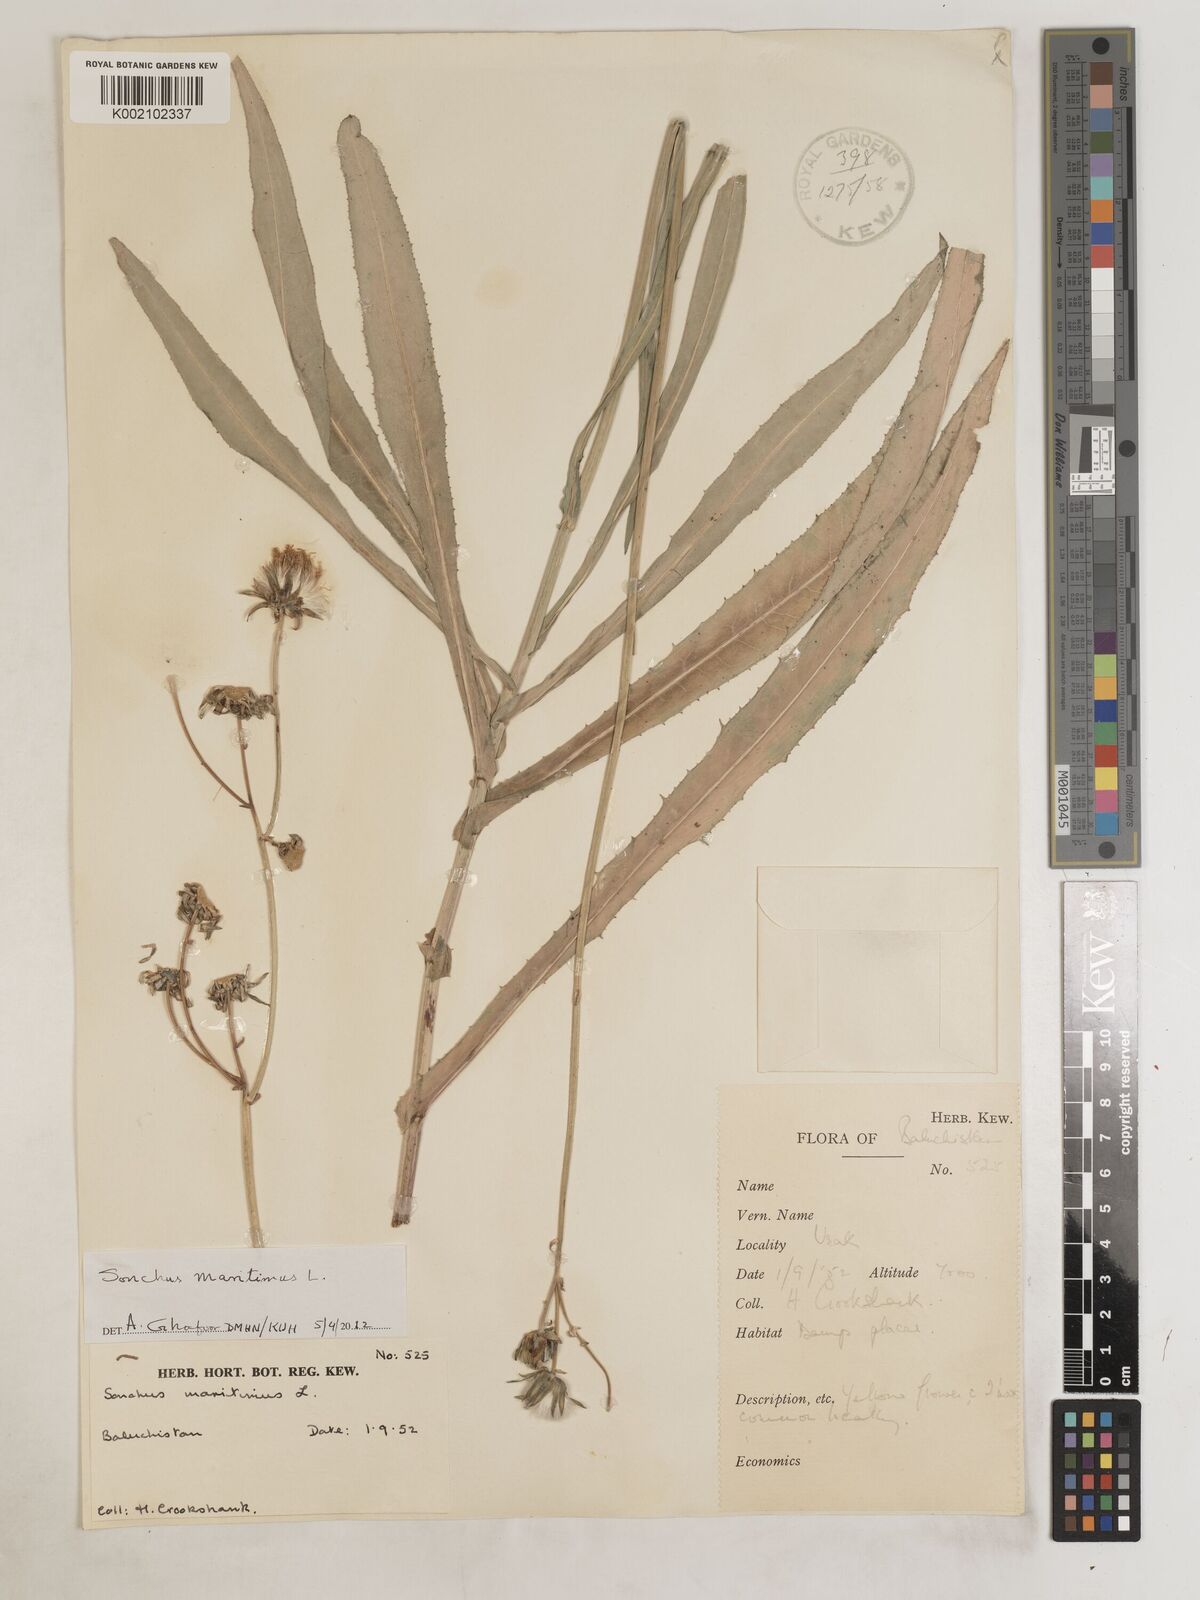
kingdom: Plantae
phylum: Tracheophyta
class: Magnoliopsida
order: Asterales
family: Asteraceae
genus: Sonchus
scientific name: Sonchus maritimus
